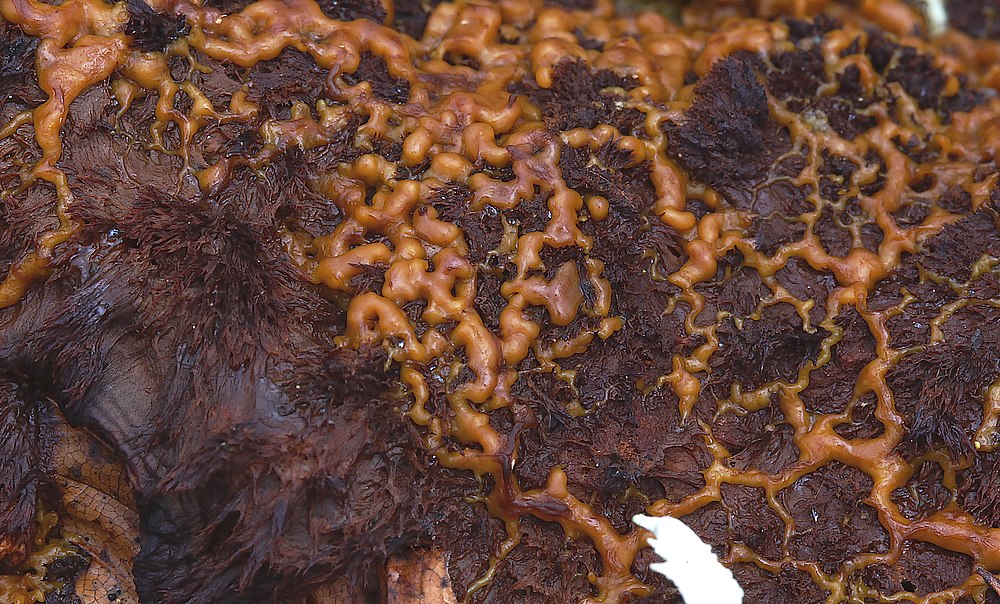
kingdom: Protozoa
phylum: Mycetozoa
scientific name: Mycetozoa
